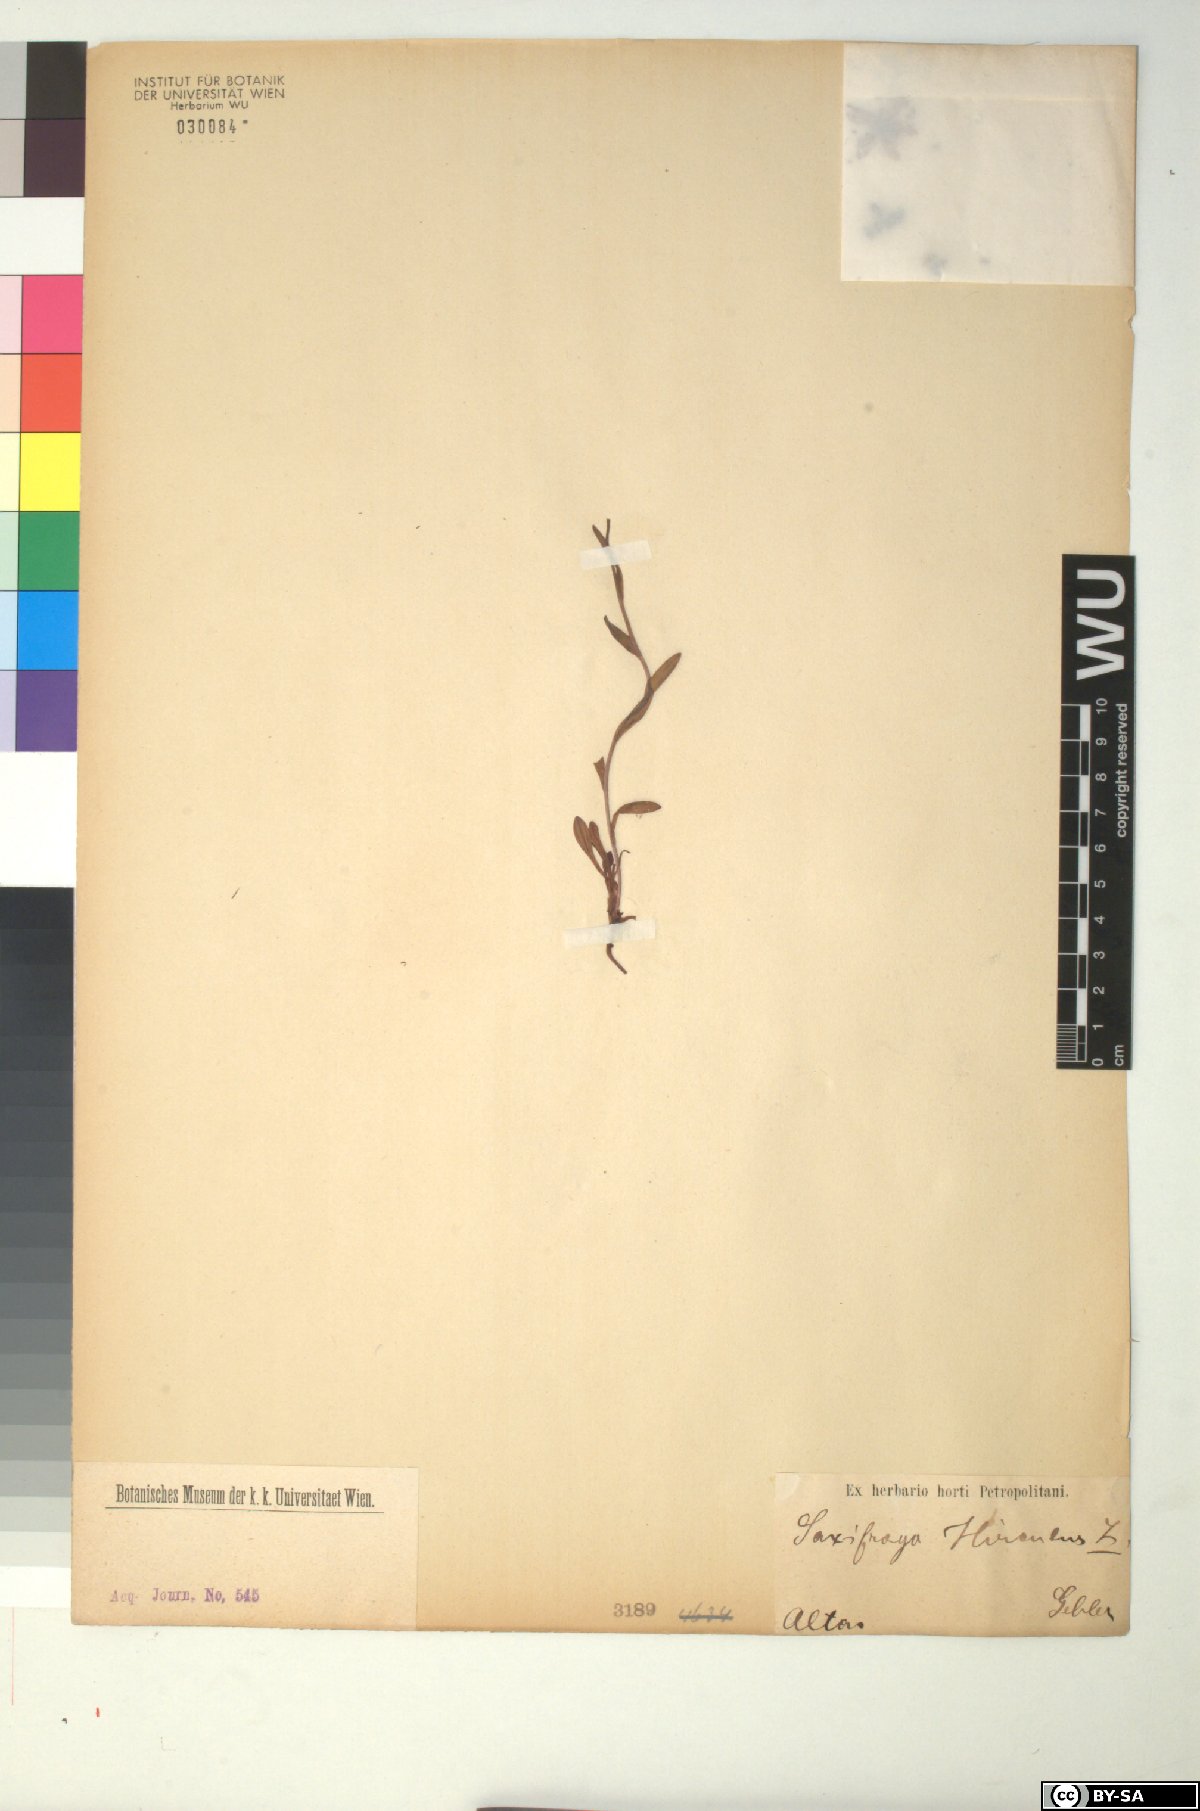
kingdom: Plantae
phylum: Tracheophyta
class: Magnoliopsida
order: Saxifragales
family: Saxifragaceae
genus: Saxifraga
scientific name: Saxifraga hirculus
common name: Yellow marsh saxifrage
